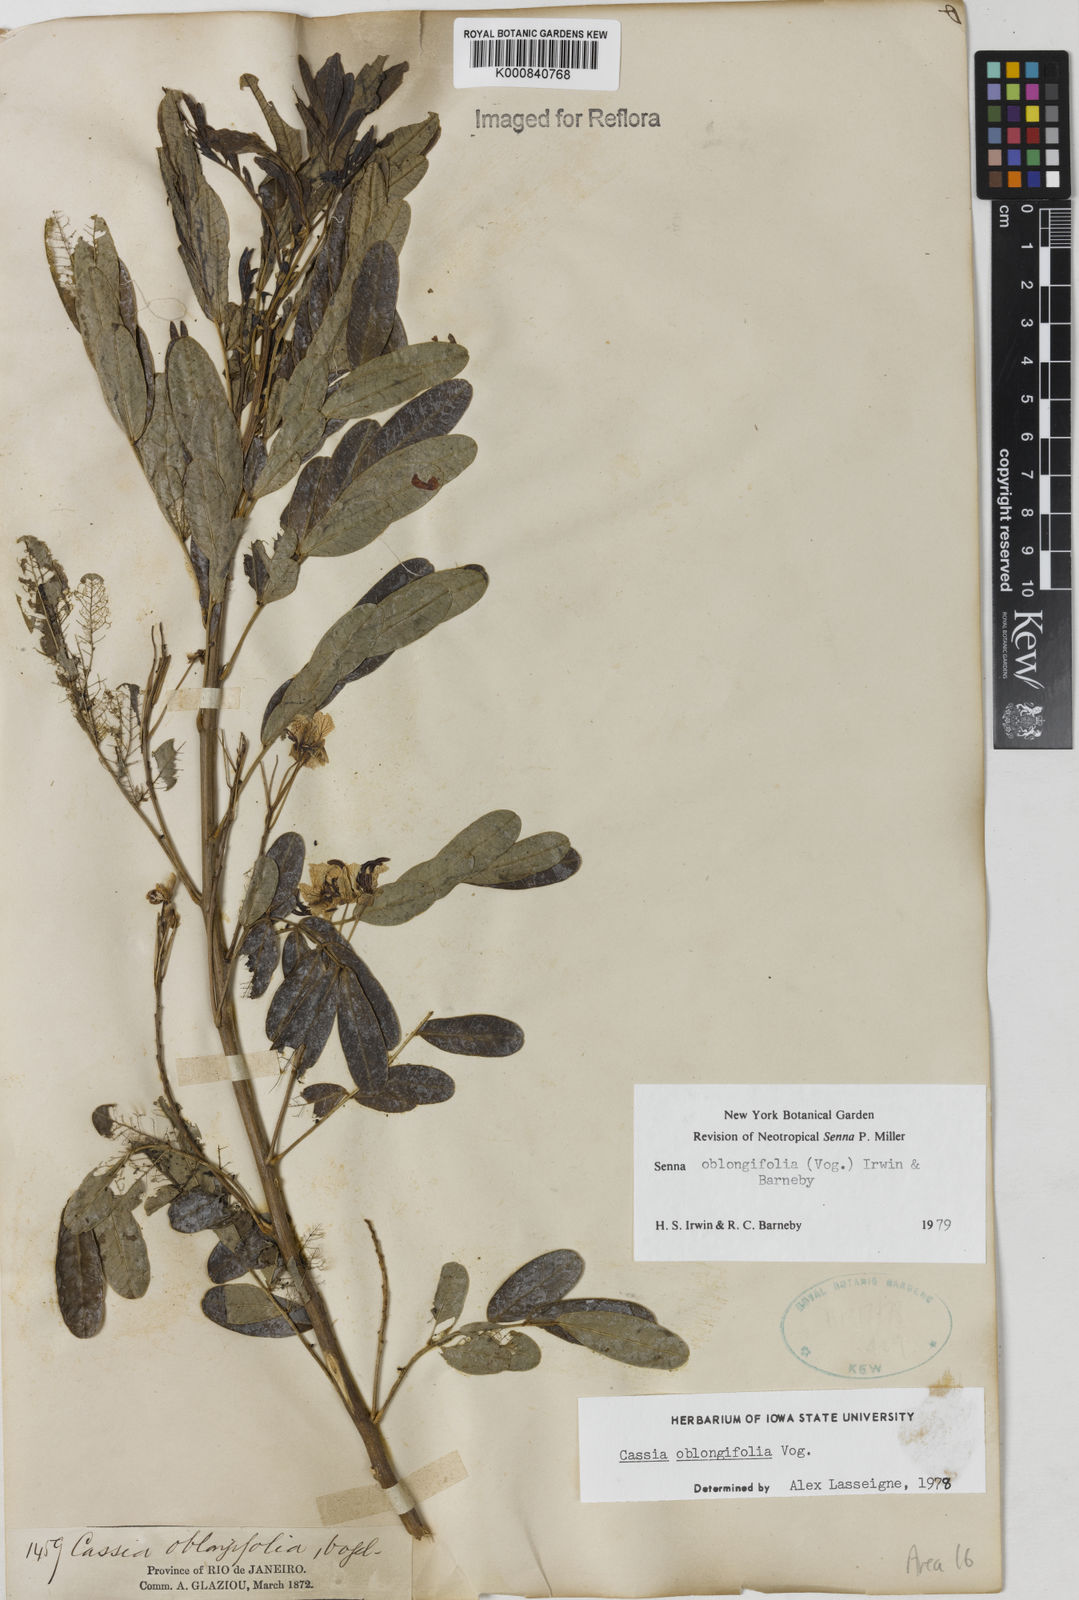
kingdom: Plantae
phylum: Tracheophyta
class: Magnoliopsida
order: Fabales
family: Fabaceae
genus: Senna
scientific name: Senna oblongifolia
